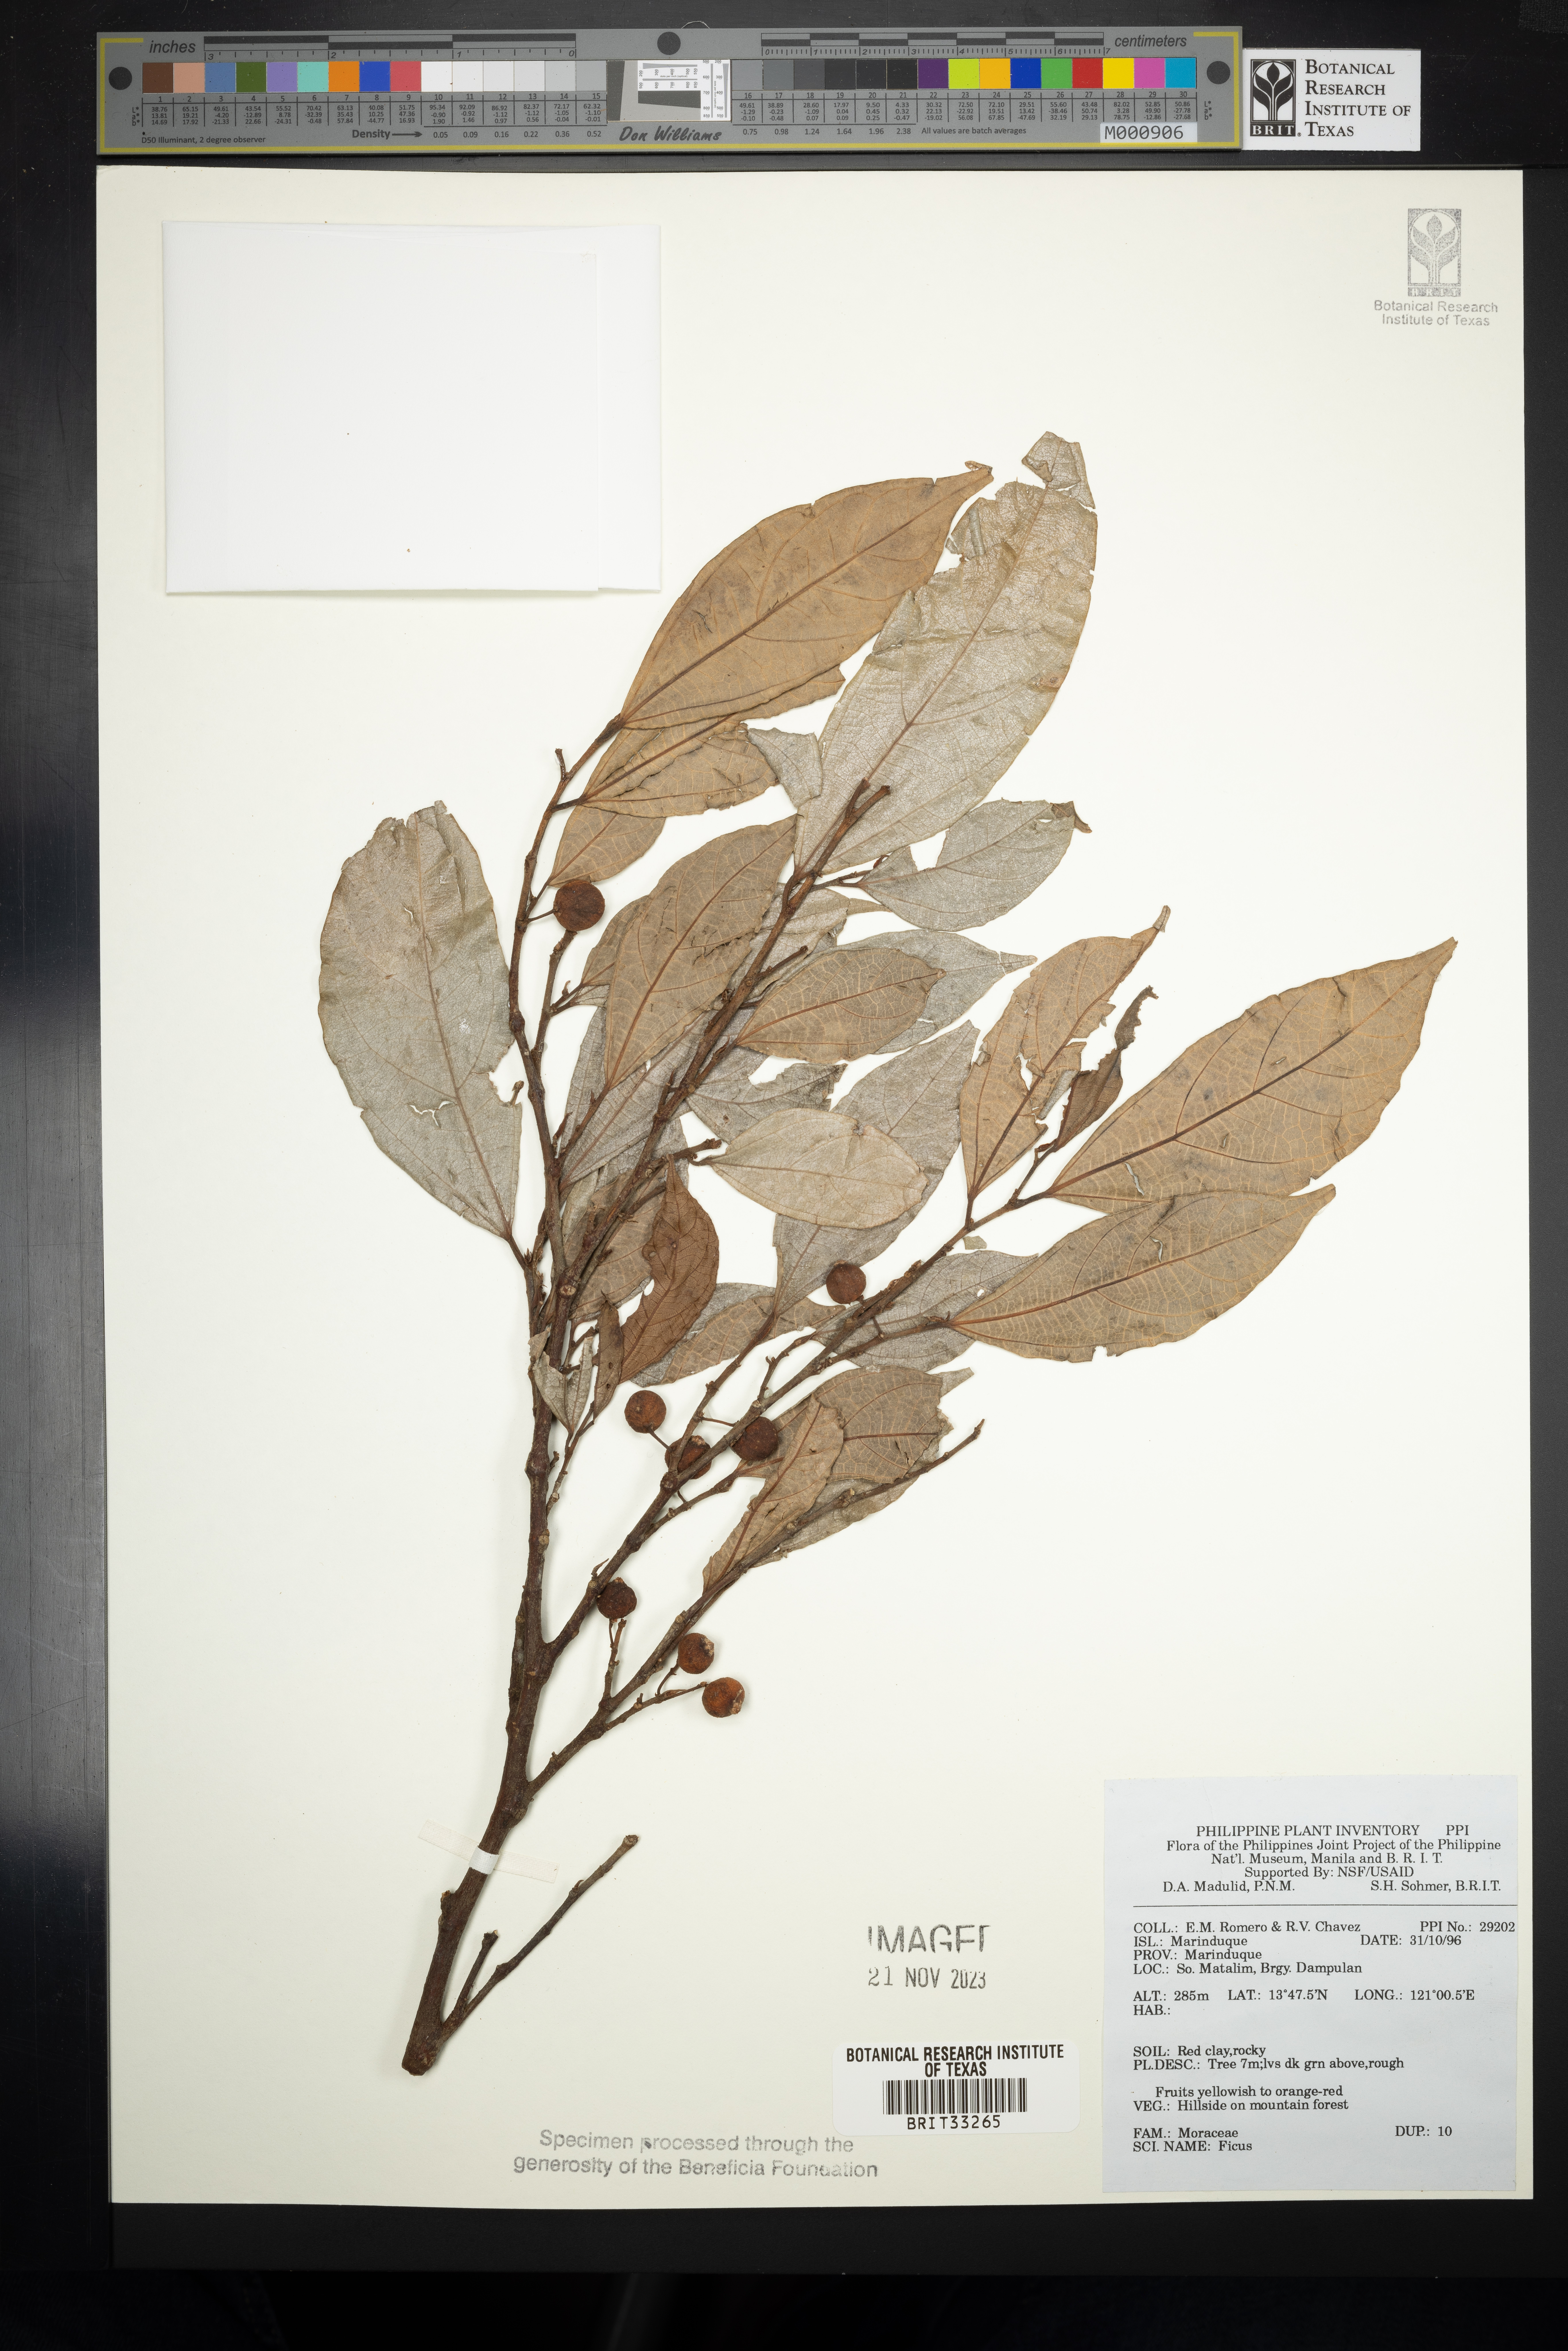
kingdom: Plantae
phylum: Tracheophyta
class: Magnoliopsida
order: Rosales
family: Moraceae
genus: Ficus
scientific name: Ficus
